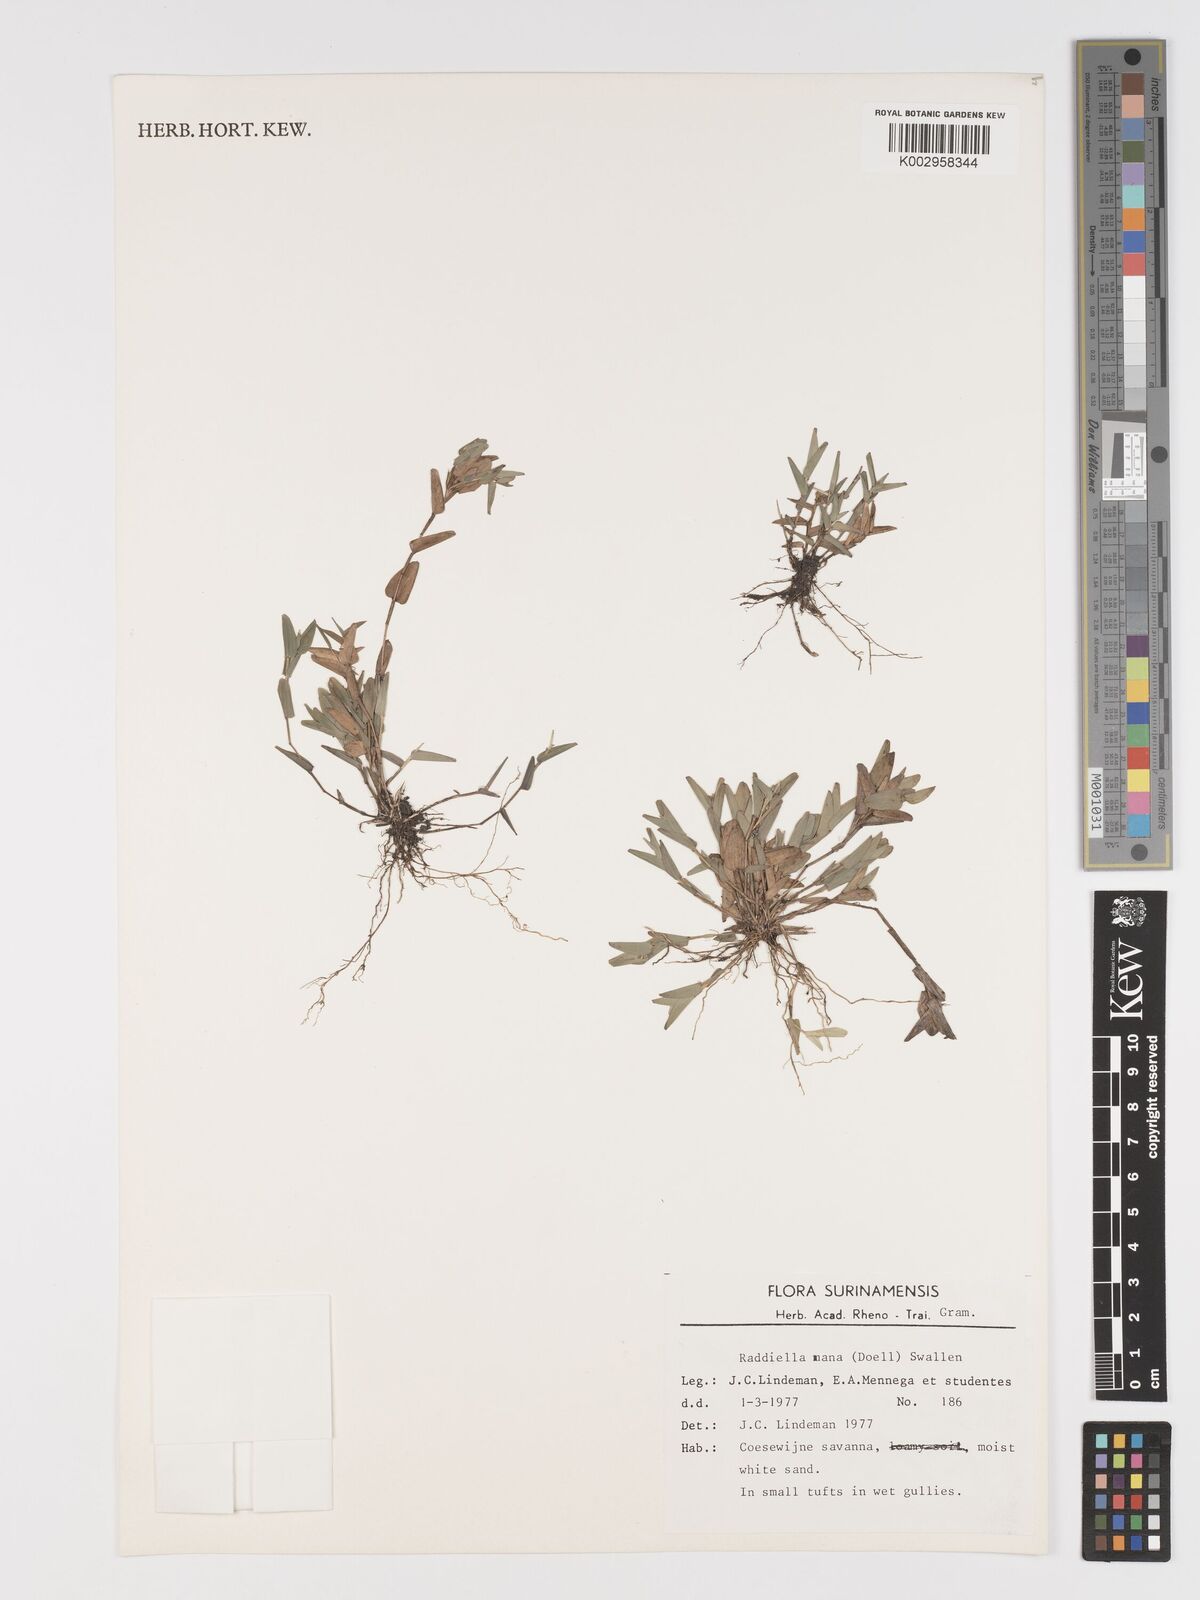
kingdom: Plantae
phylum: Tracheophyta
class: Liliopsida
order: Poales
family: Poaceae
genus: Raddiella
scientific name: Raddiella esenbeckii
